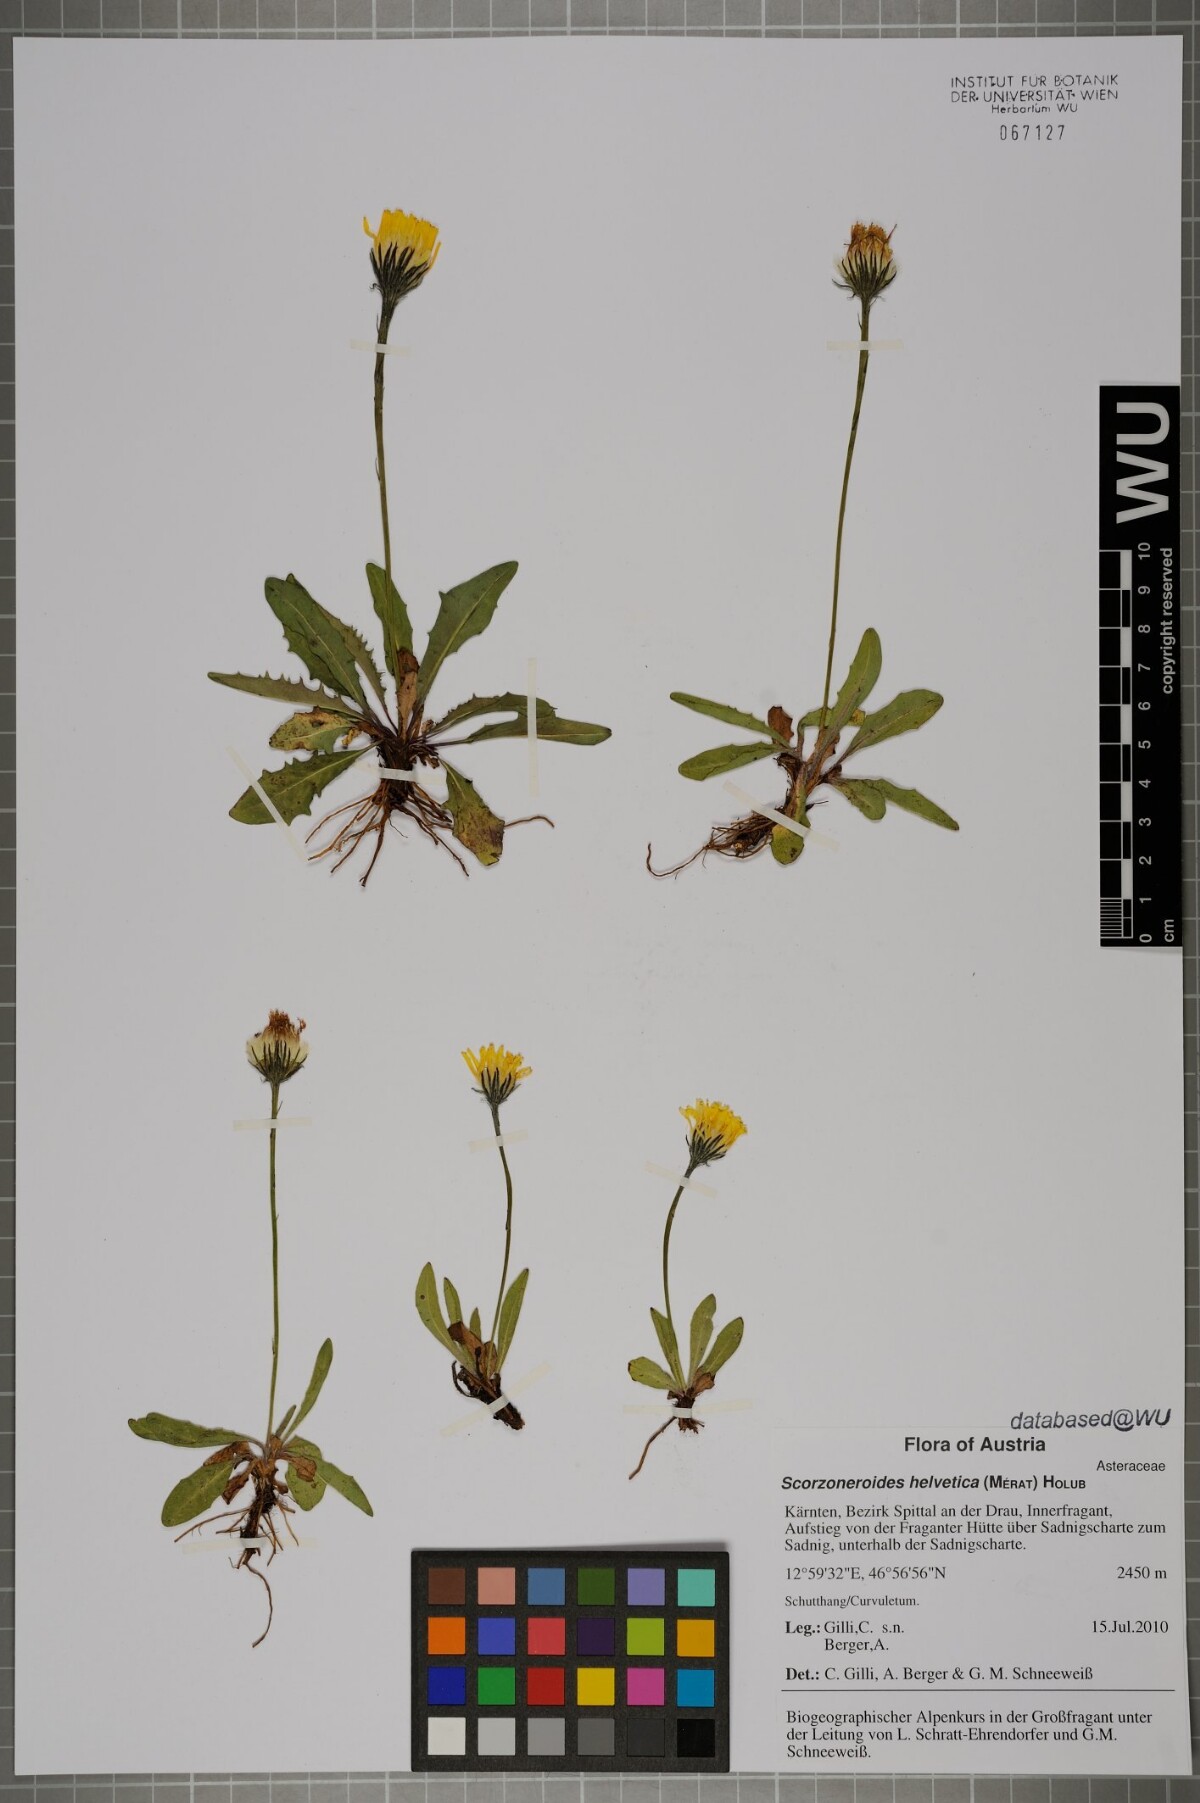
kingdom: Plantae
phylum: Tracheophyta
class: Magnoliopsida
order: Asterales
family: Asteraceae
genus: Scorzoneroides
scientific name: Scorzoneroides helvetica
